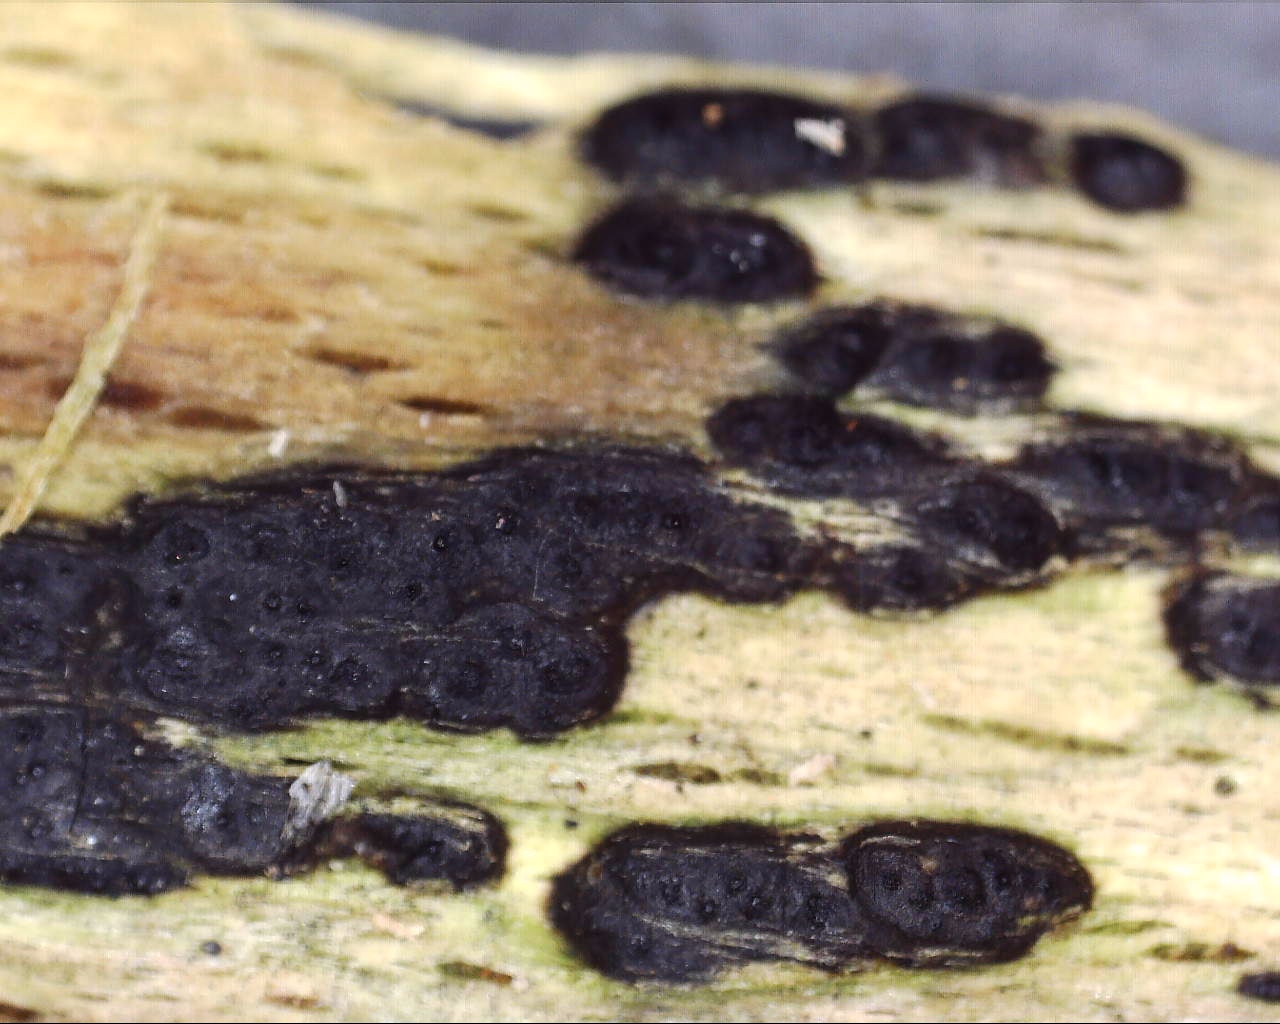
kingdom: Fungi
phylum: Ascomycota
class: Sordariomycetes
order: Xylariales
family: Xylariaceae
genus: Nemania
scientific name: Nemania confluens
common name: indsænket kuldyne
